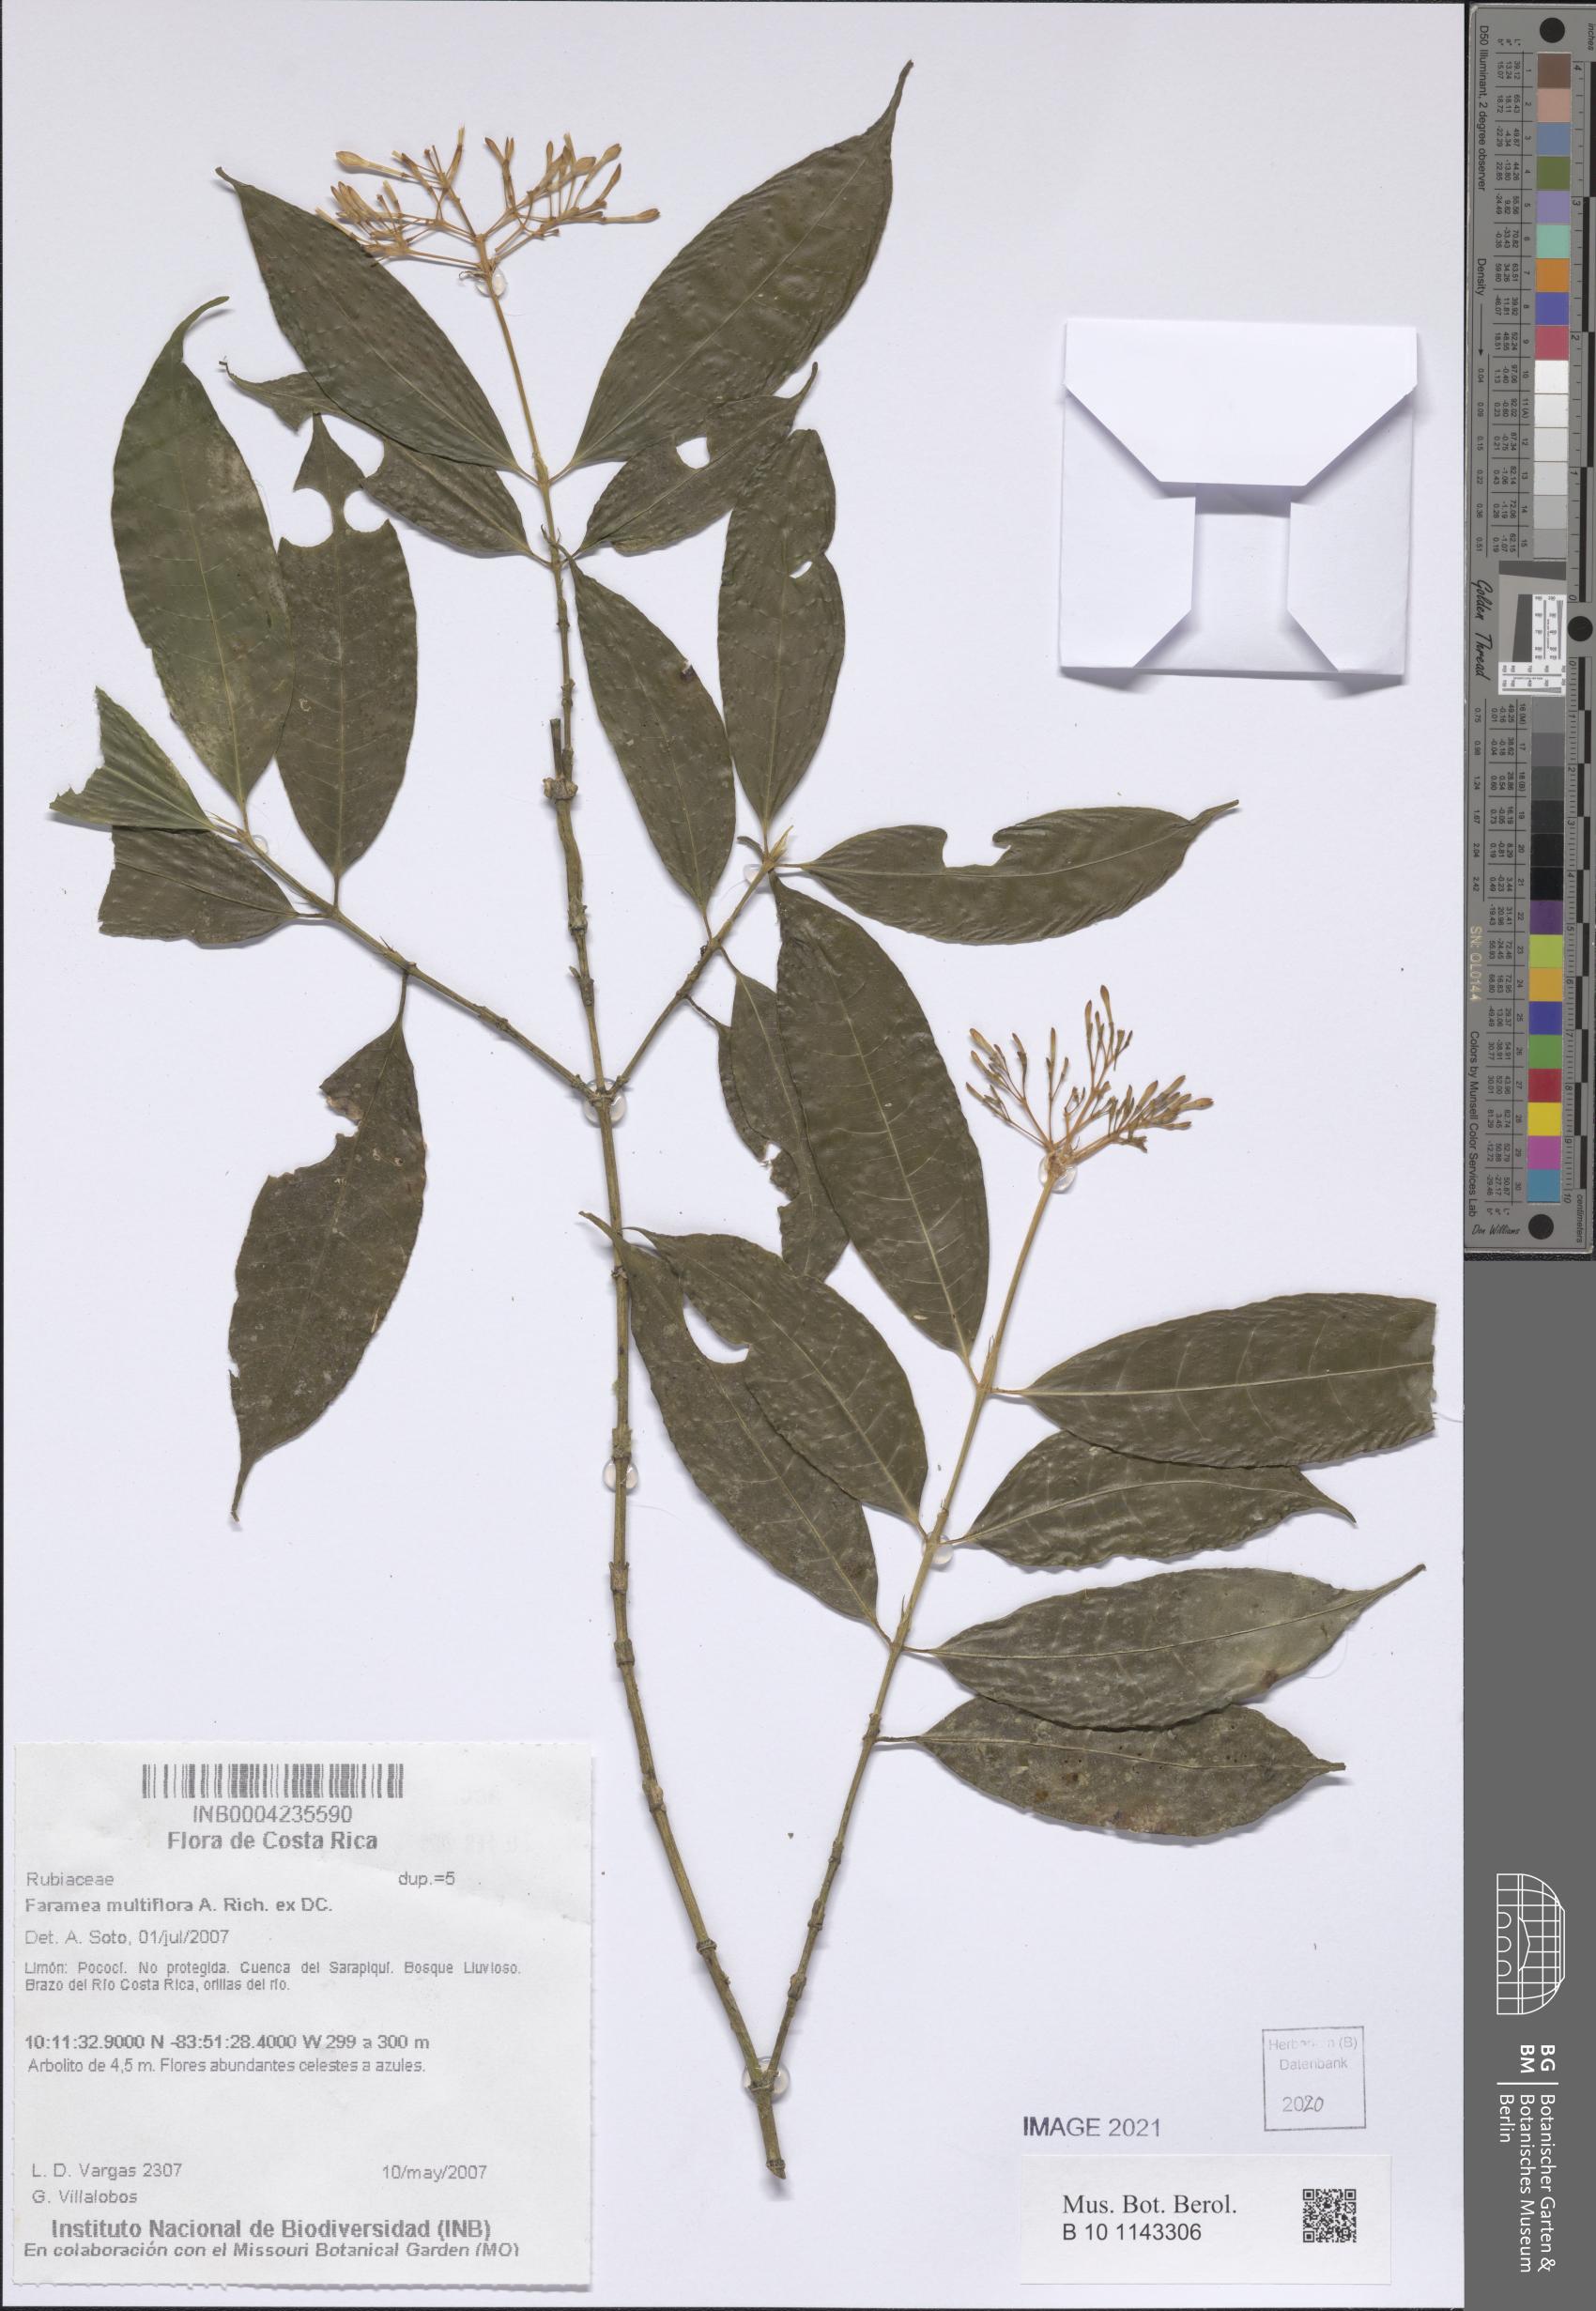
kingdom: Plantae
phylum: Tracheophyta
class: Magnoliopsida
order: Gentianales
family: Rubiaceae
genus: Faramea
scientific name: Faramea multiflora
